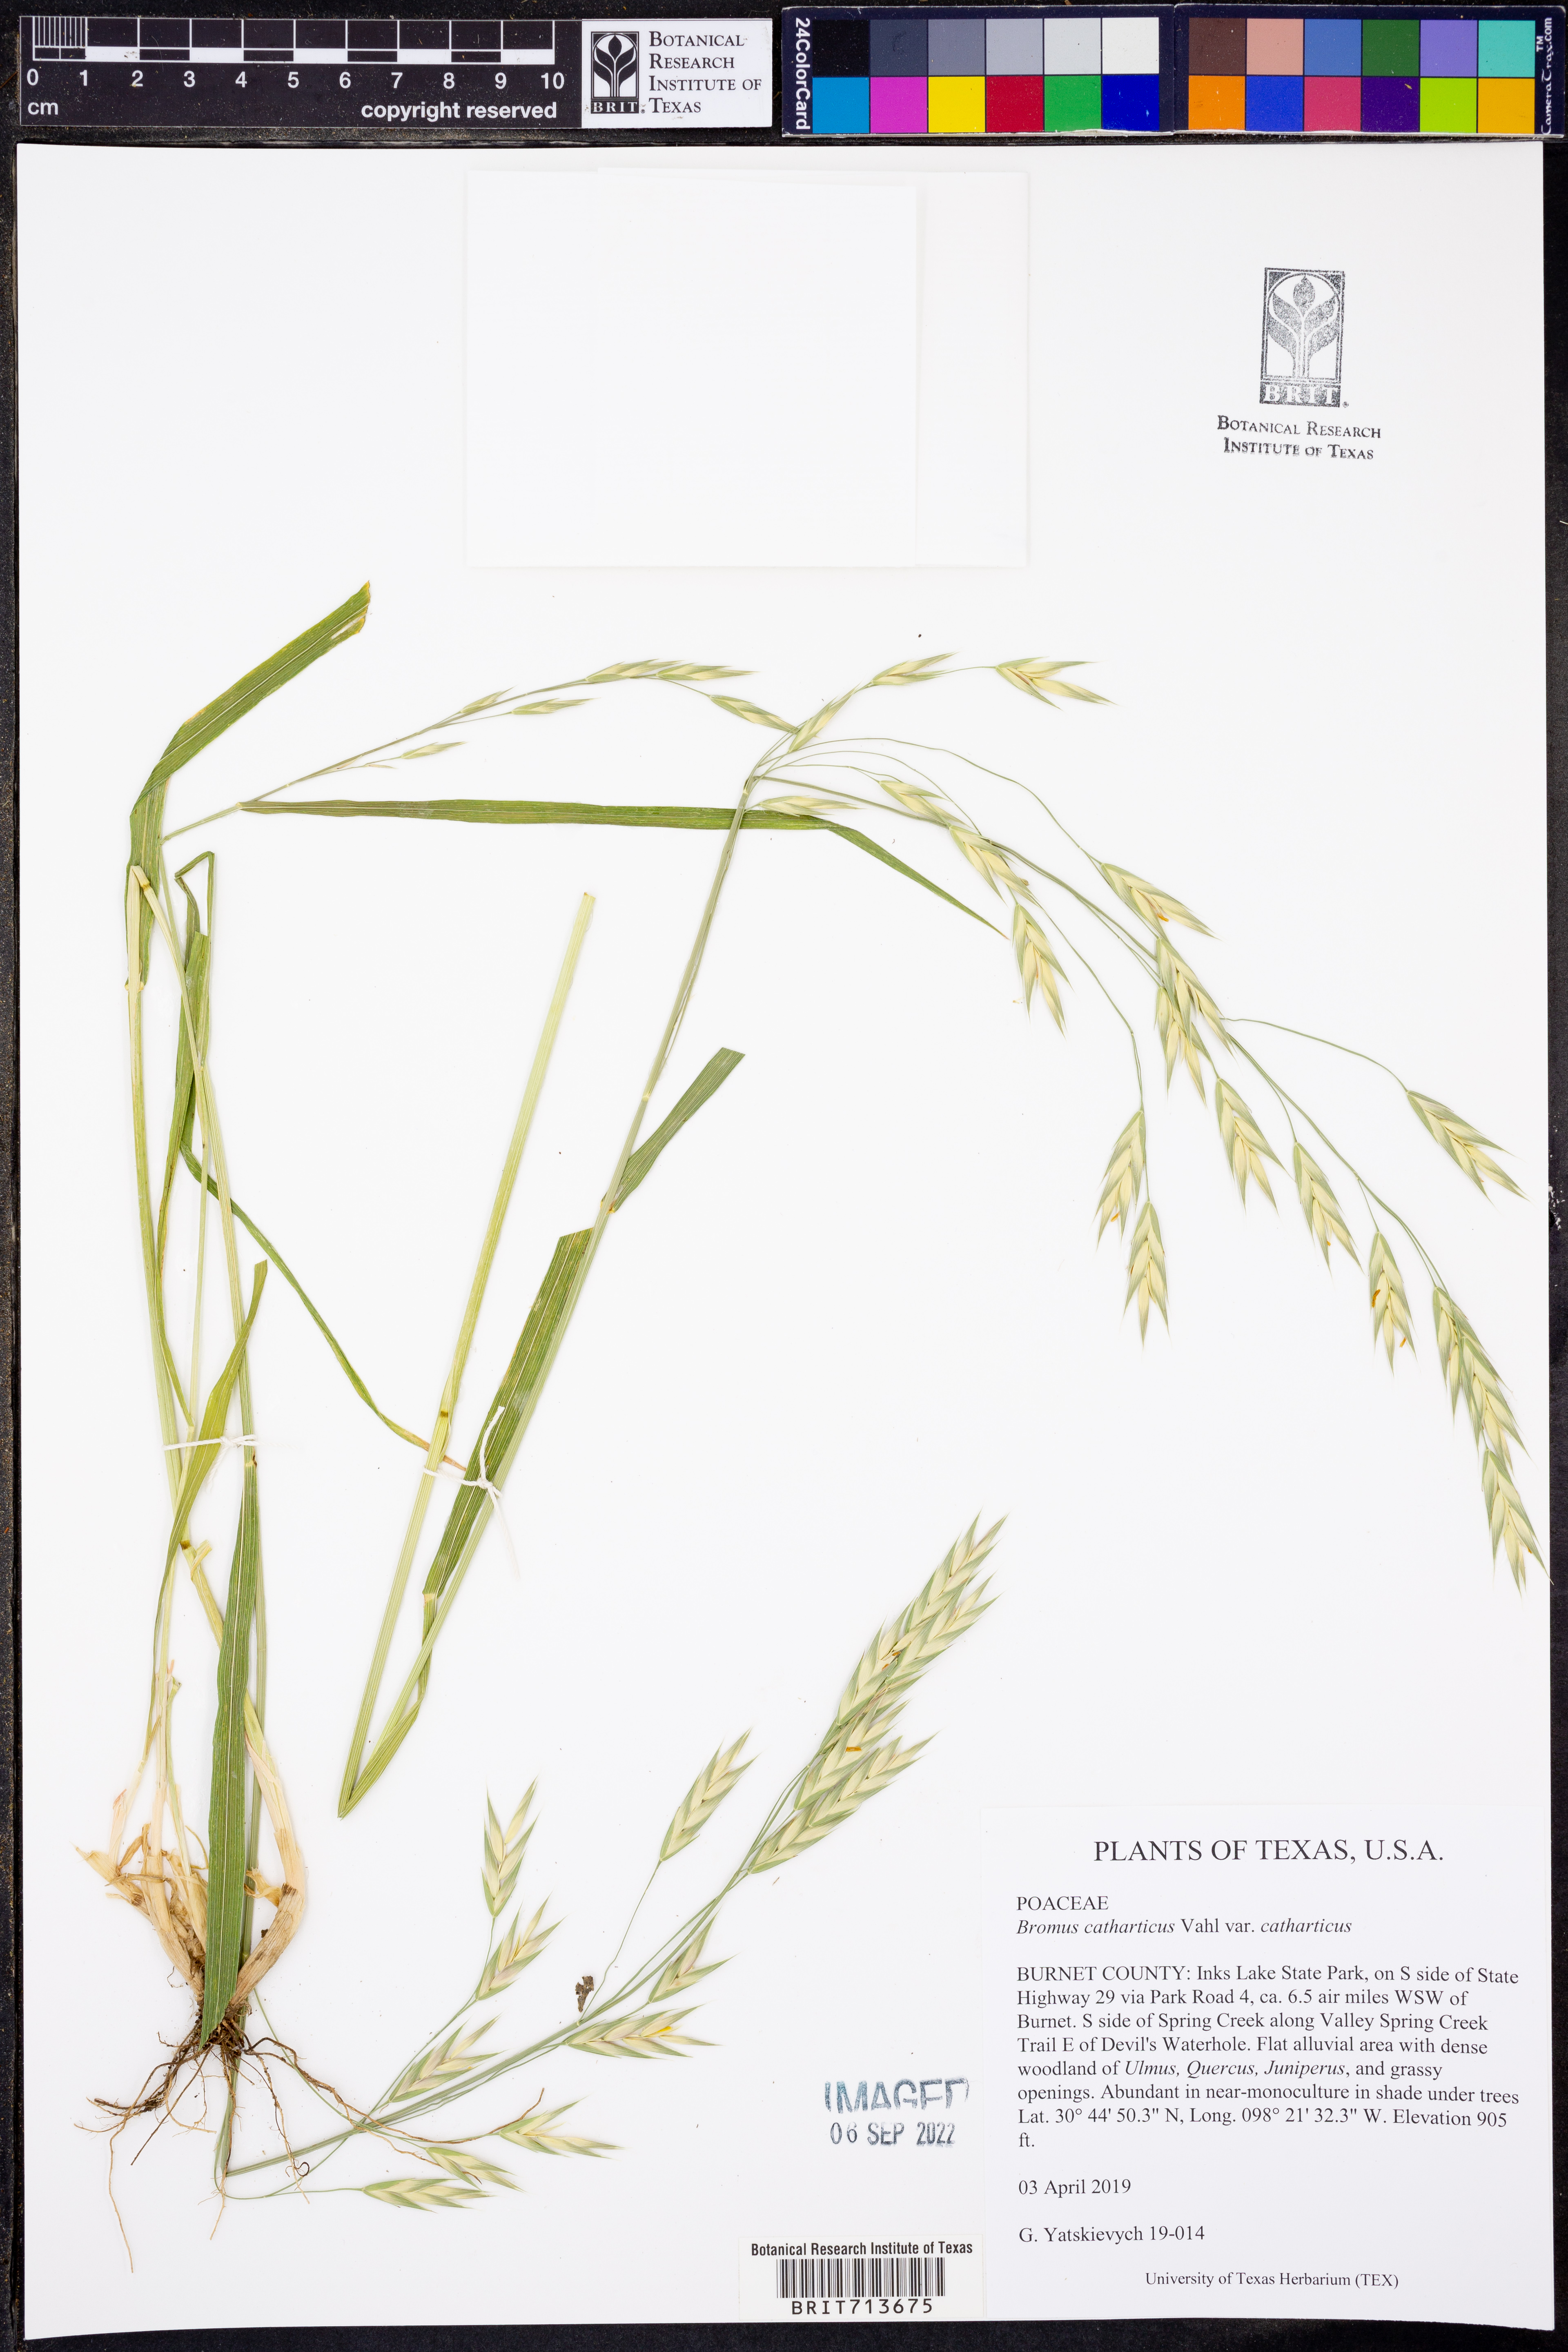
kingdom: Plantae
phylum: Tracheophyta
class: Liliopsida
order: Poales
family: Poaceae
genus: Bromus
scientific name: Bromus catharticus
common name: Rescuegrass
